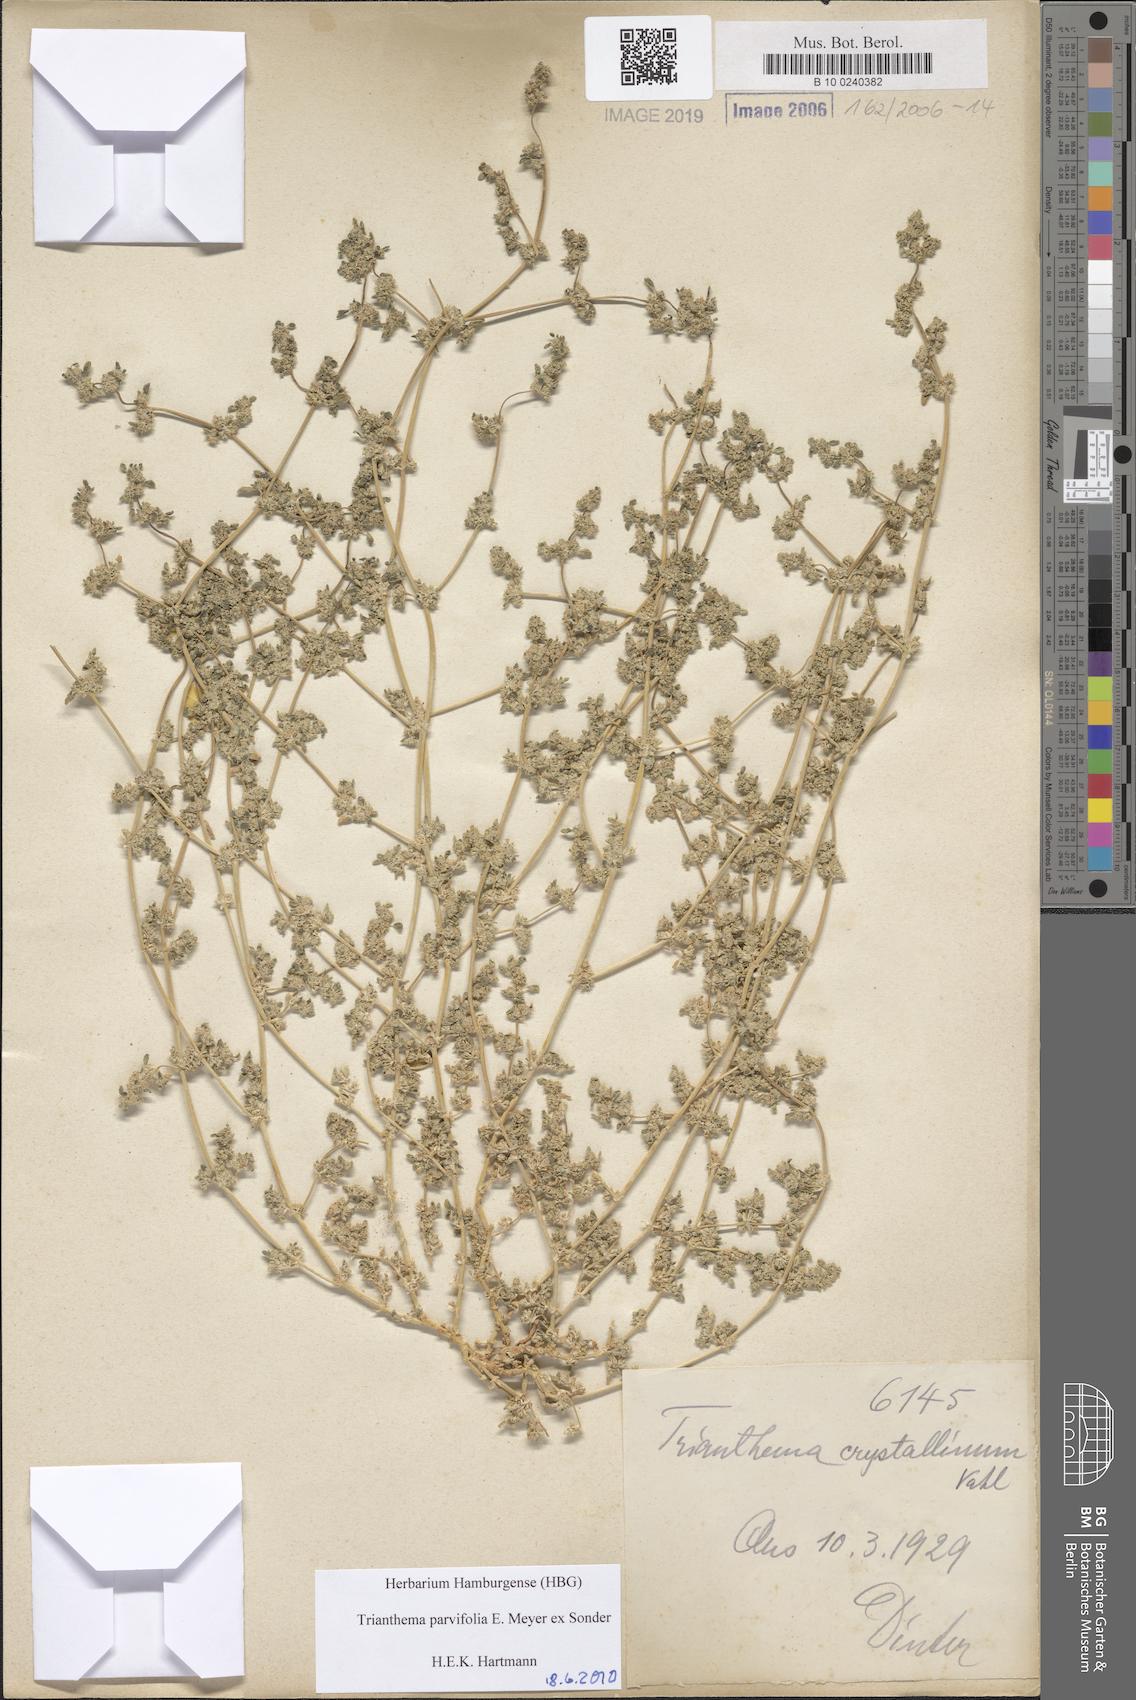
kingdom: Plantae
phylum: Tracheophyta
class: Magnoliopsida
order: Caryophyllales
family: Aizoaceae
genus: Trianthema
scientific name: Trianthema crystallinum
